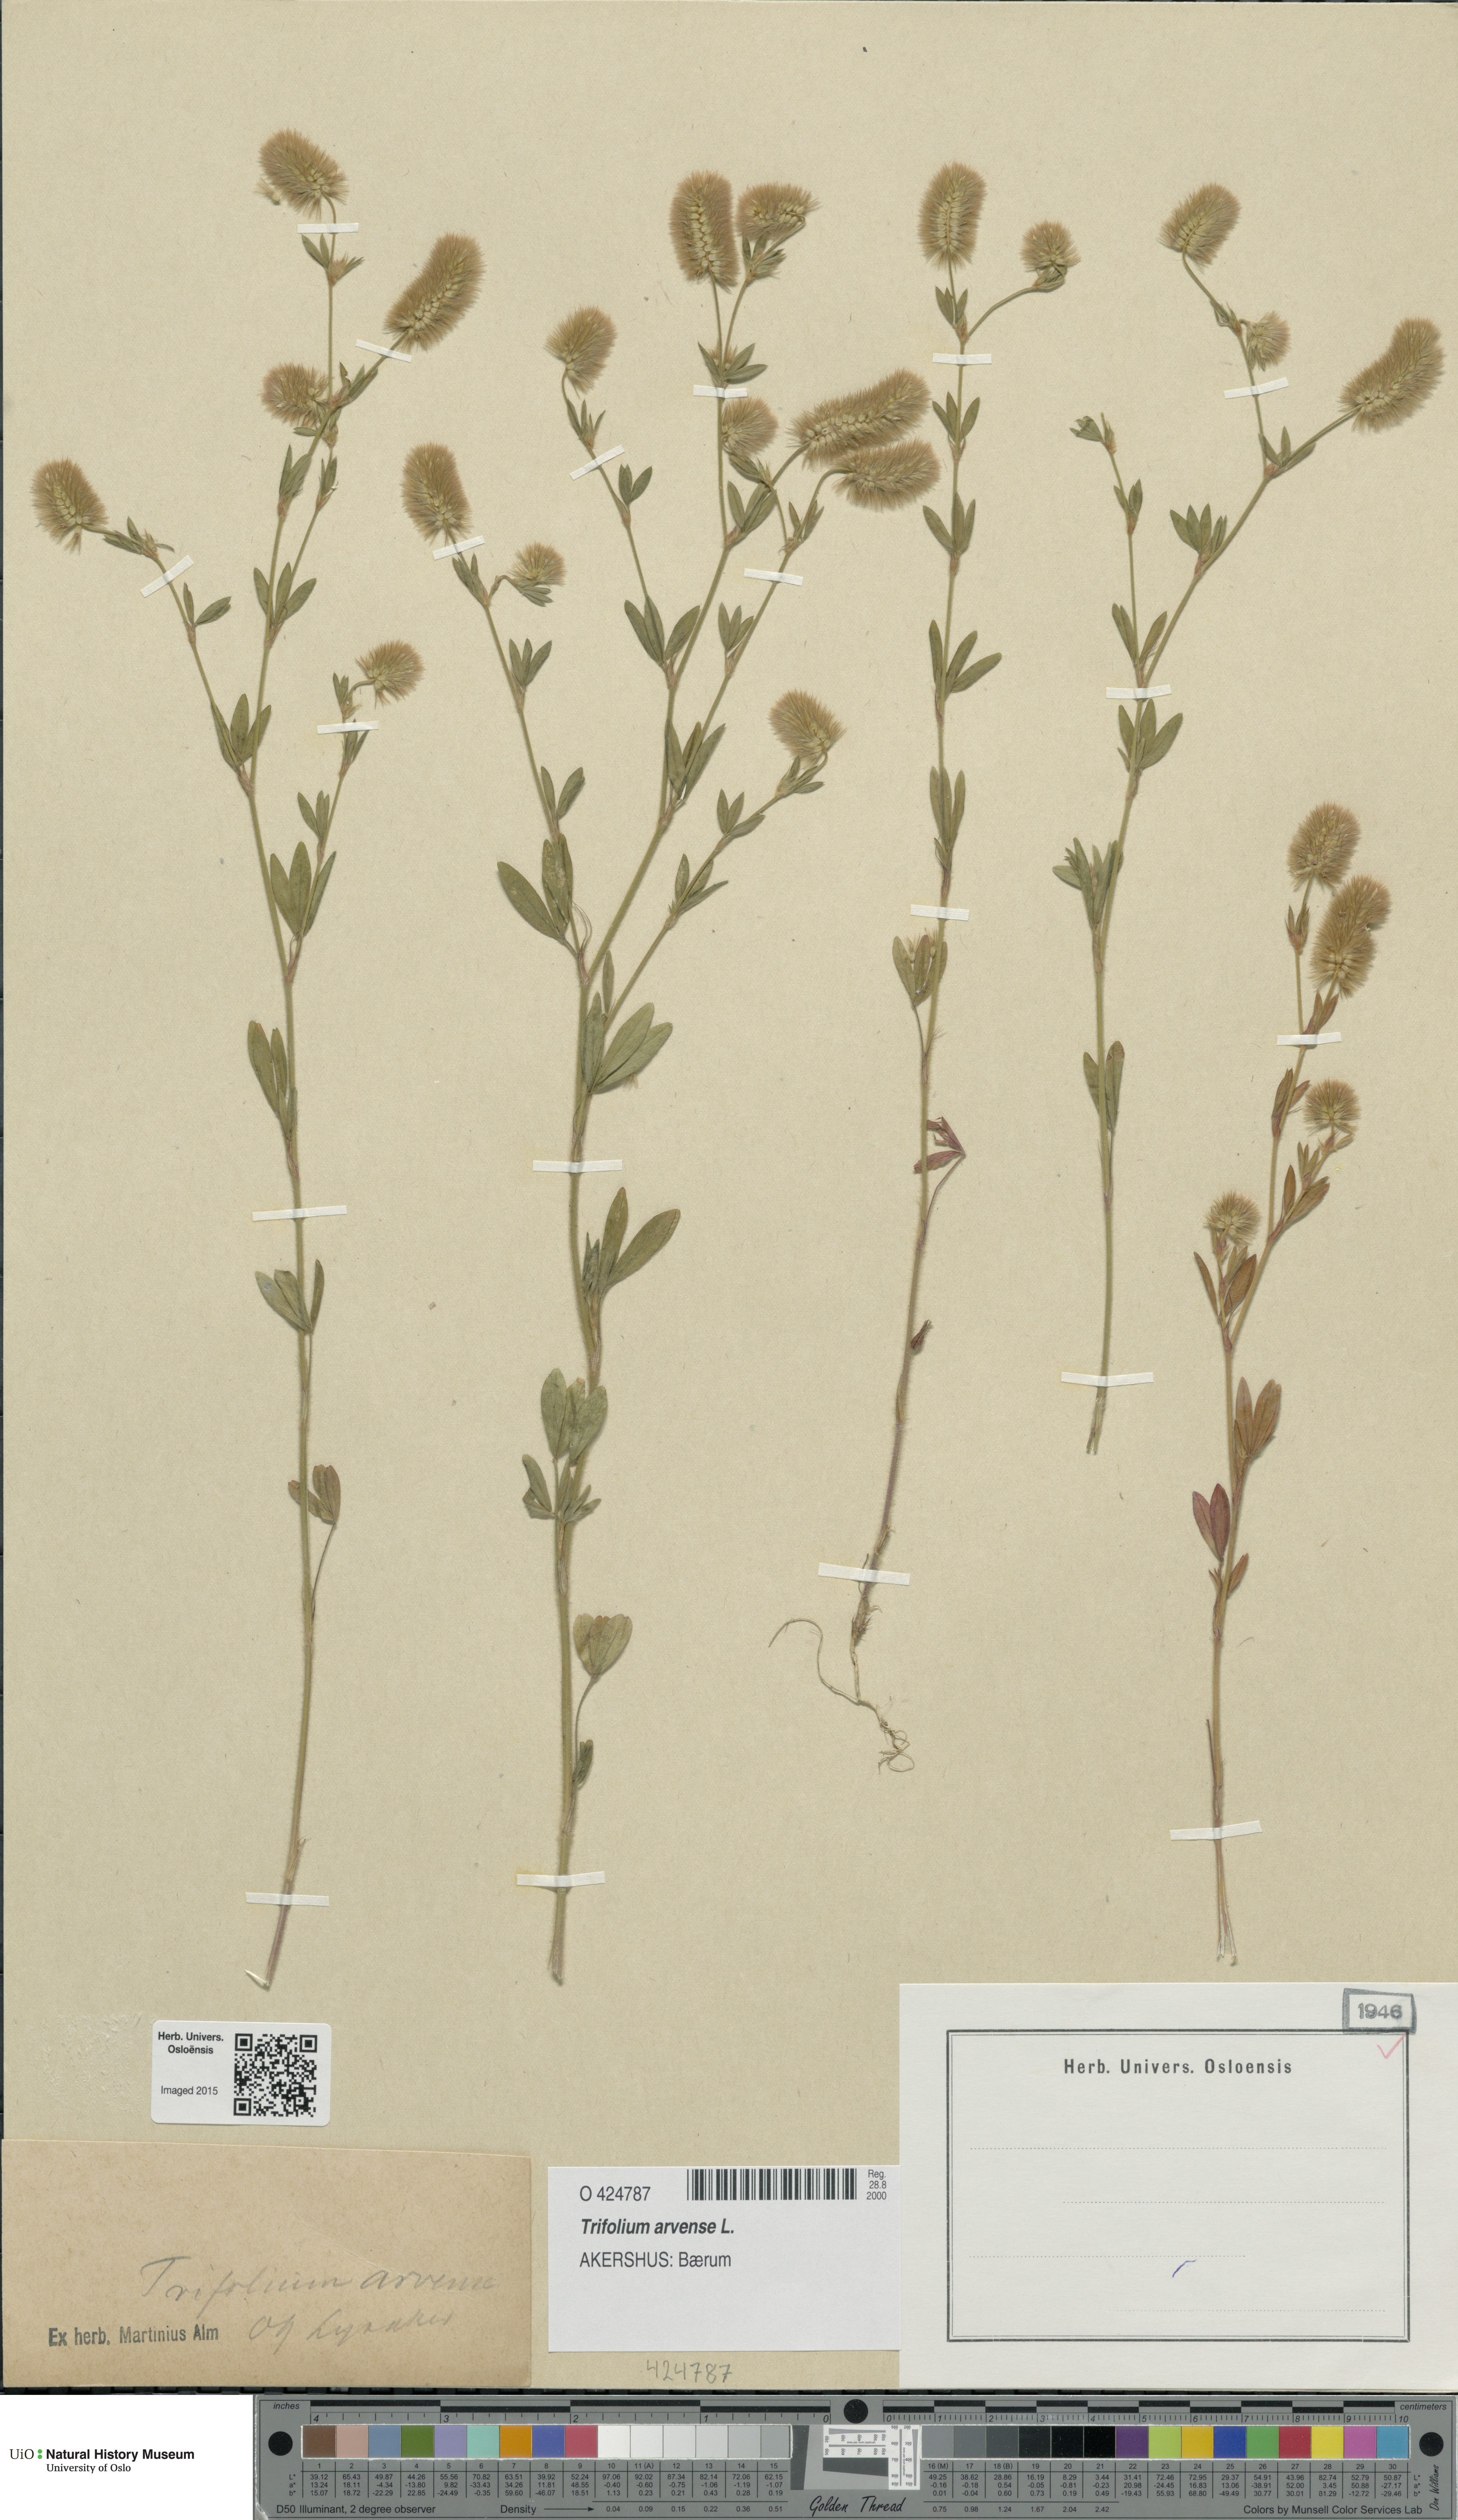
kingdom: Plantae
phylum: Tracheophyta
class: Magnoliopsida
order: Fabales
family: Fabaceae
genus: Trifolium
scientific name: Trifolium arvense
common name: Hare's-foot clover
